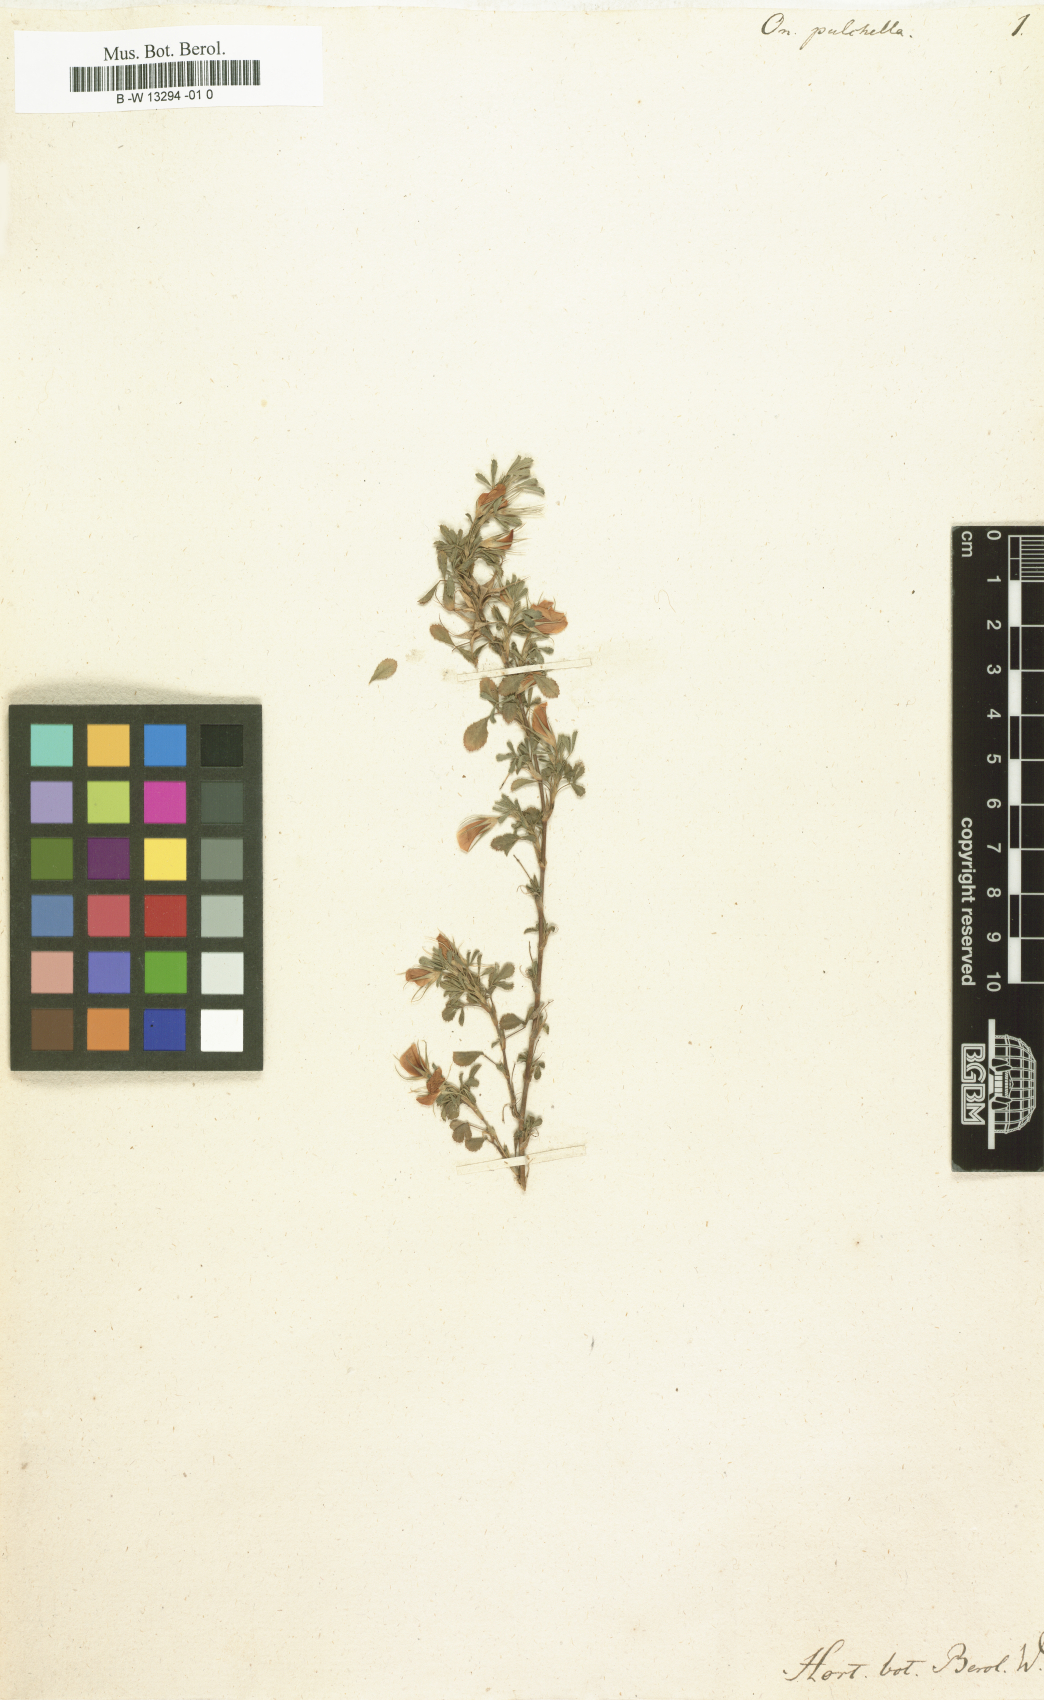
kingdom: Plantae
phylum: Tracheophyta
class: Magnoliopsida
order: Fabales
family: Fabaceae
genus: Ononis
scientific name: Ononis adenotricha
